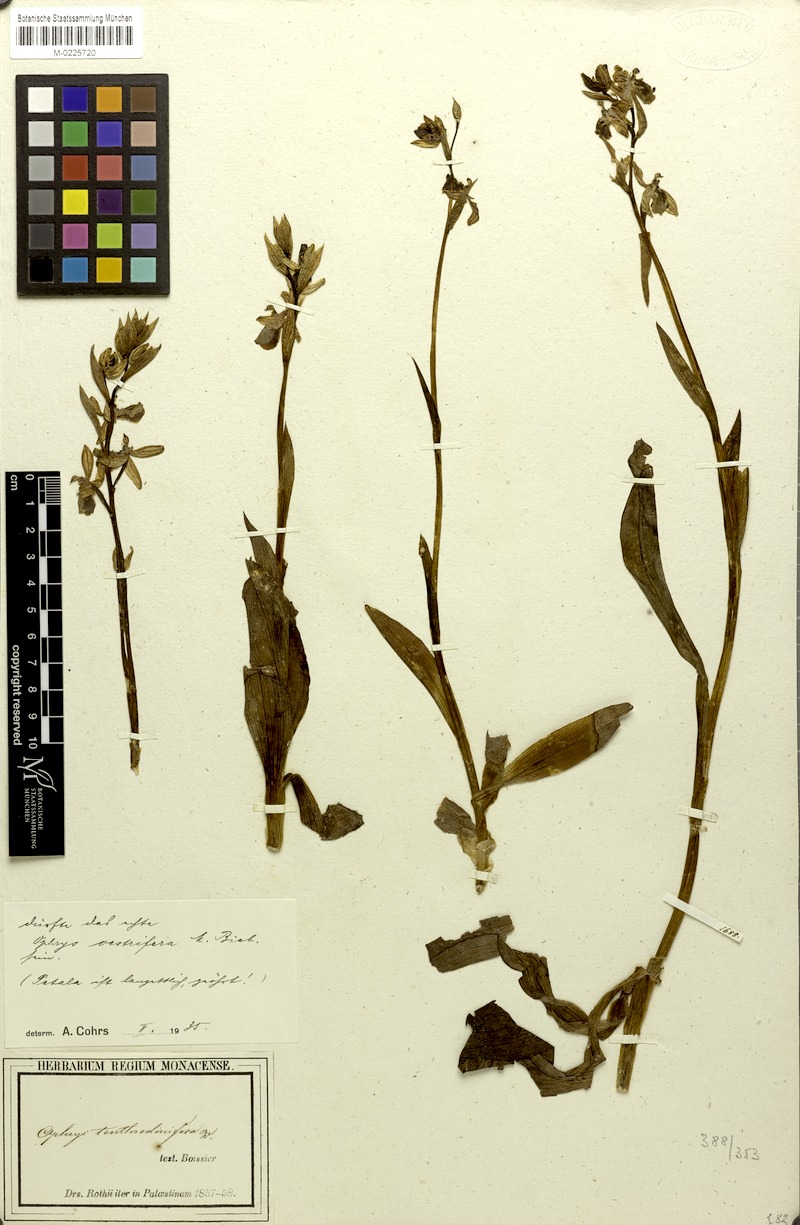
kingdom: Plantae
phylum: Tracheophyta
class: Liliopsida
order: Asparagales
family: Orchidaceae
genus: Ophrys
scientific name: Ophrys scolopax
